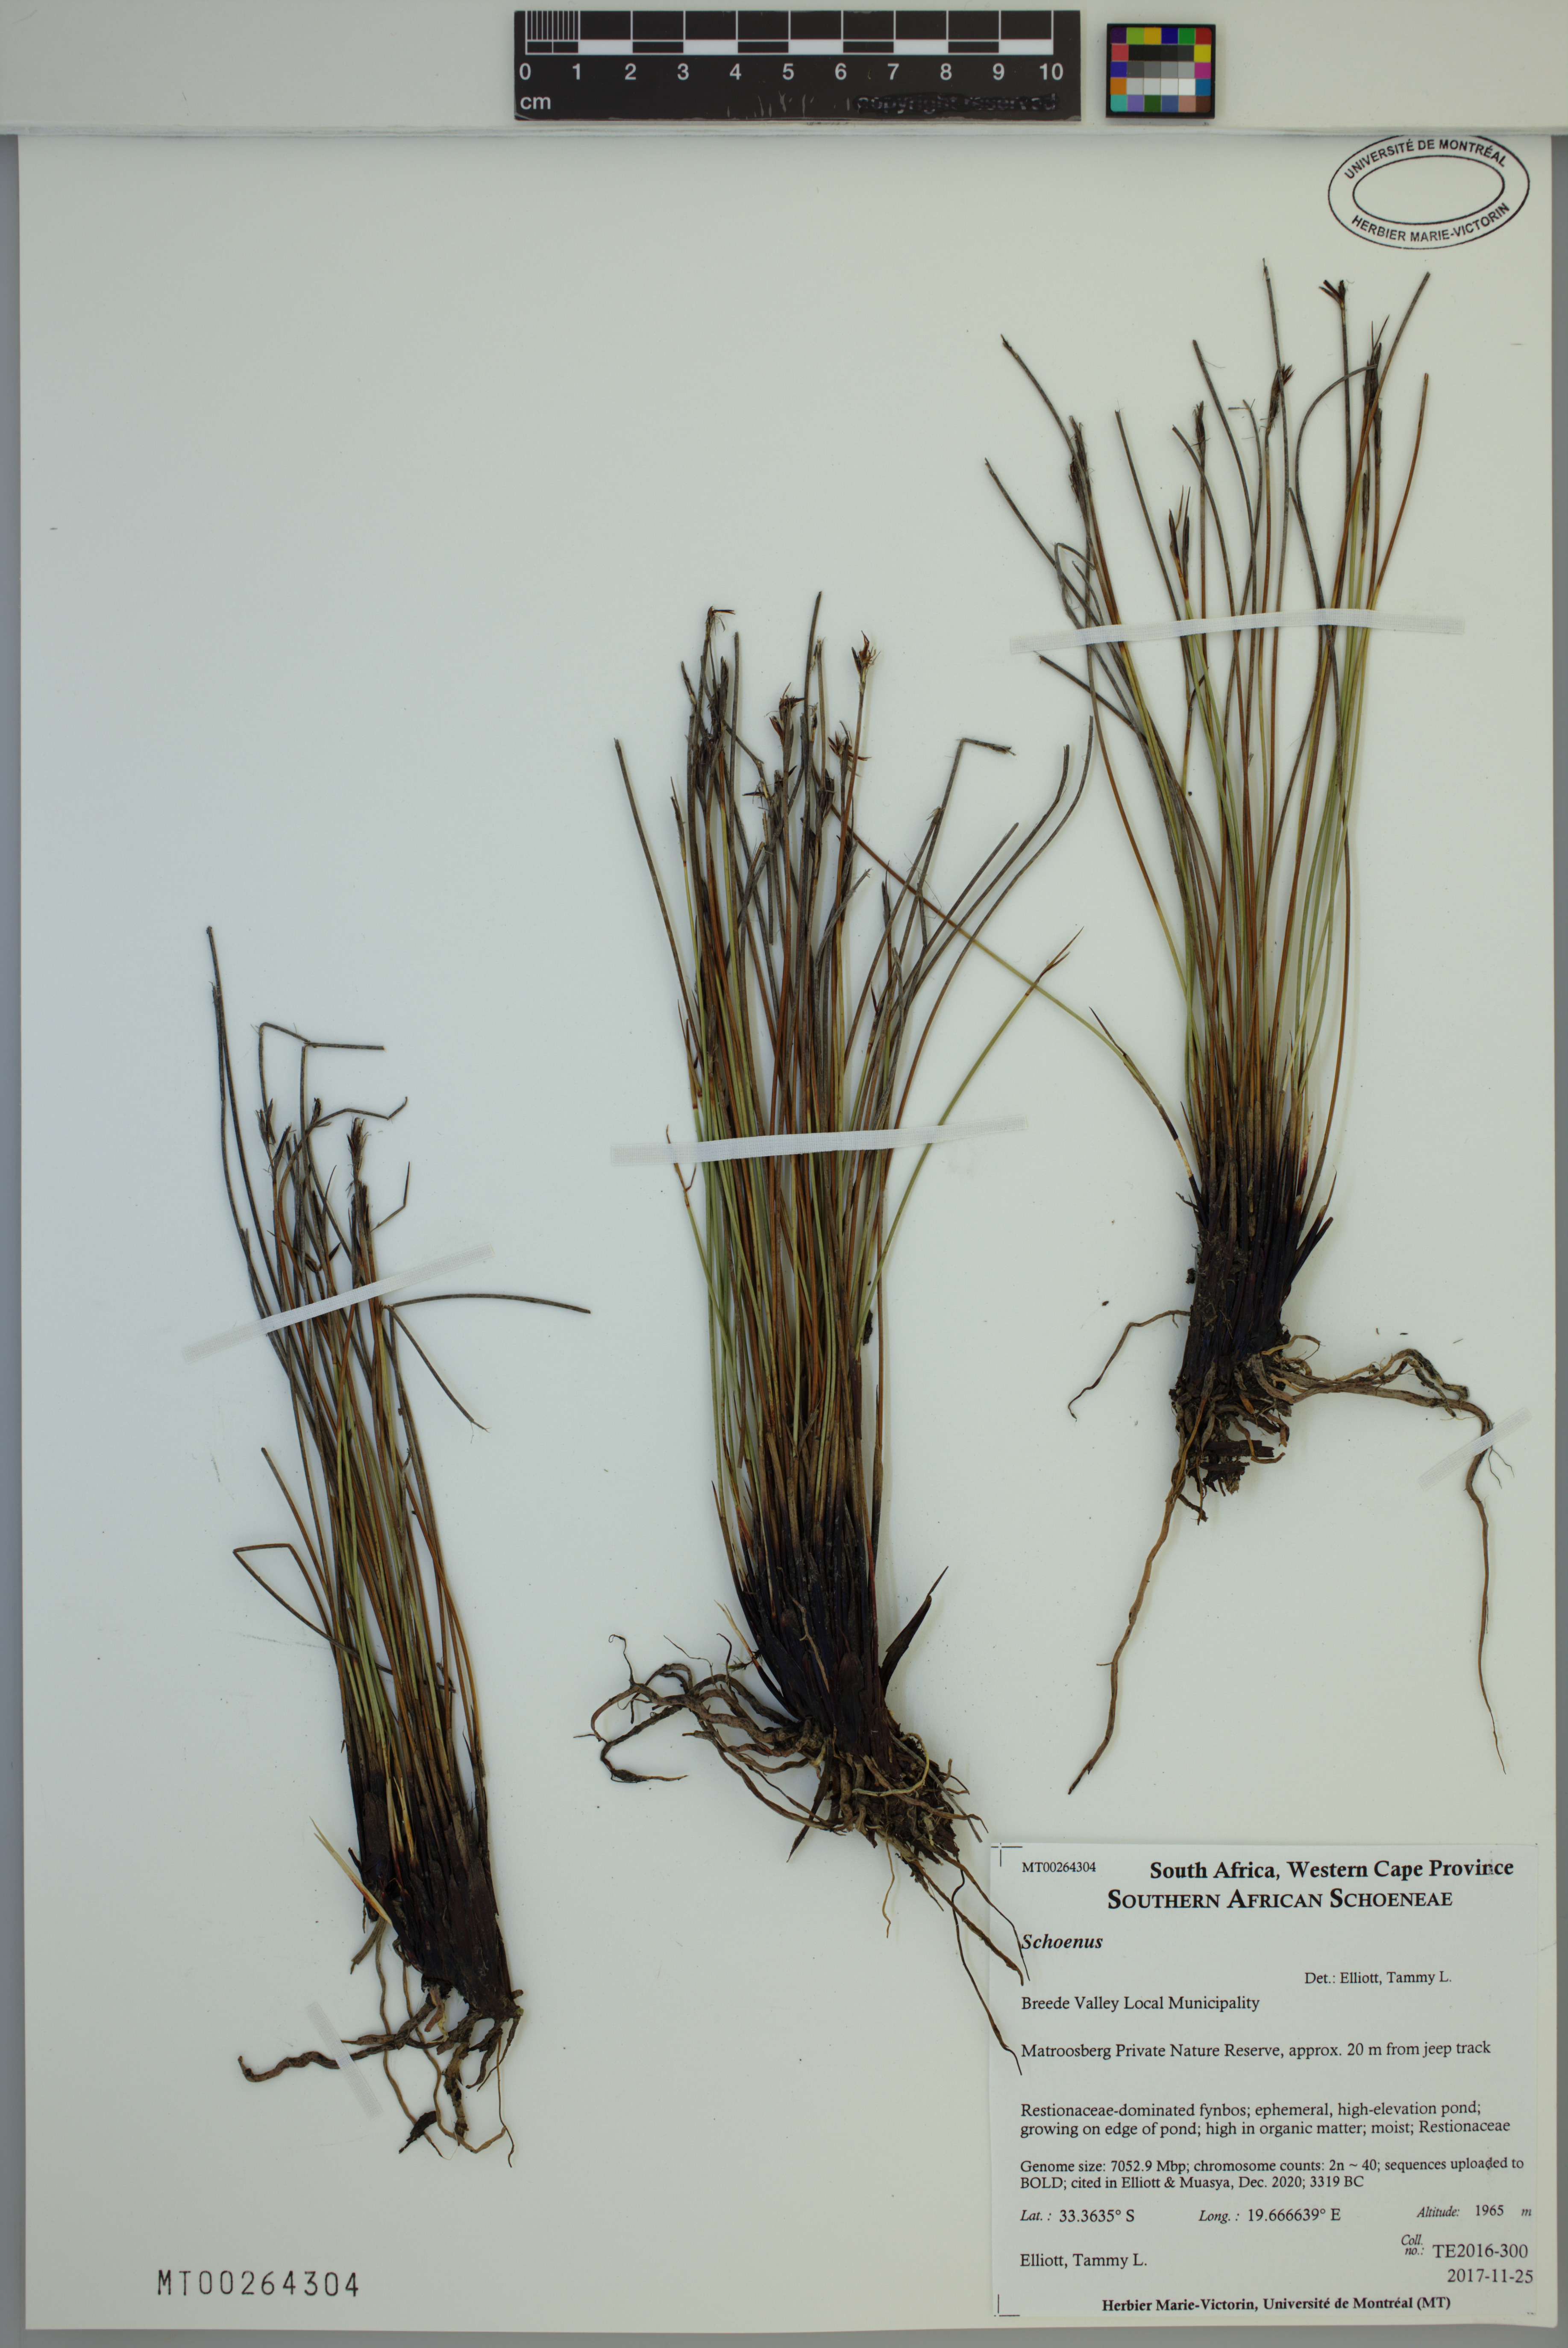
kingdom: Plantae
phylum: Tracheophyta
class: Liliopsida
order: Poales
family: Cyperaceae
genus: Schoenus
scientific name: Schoenus
